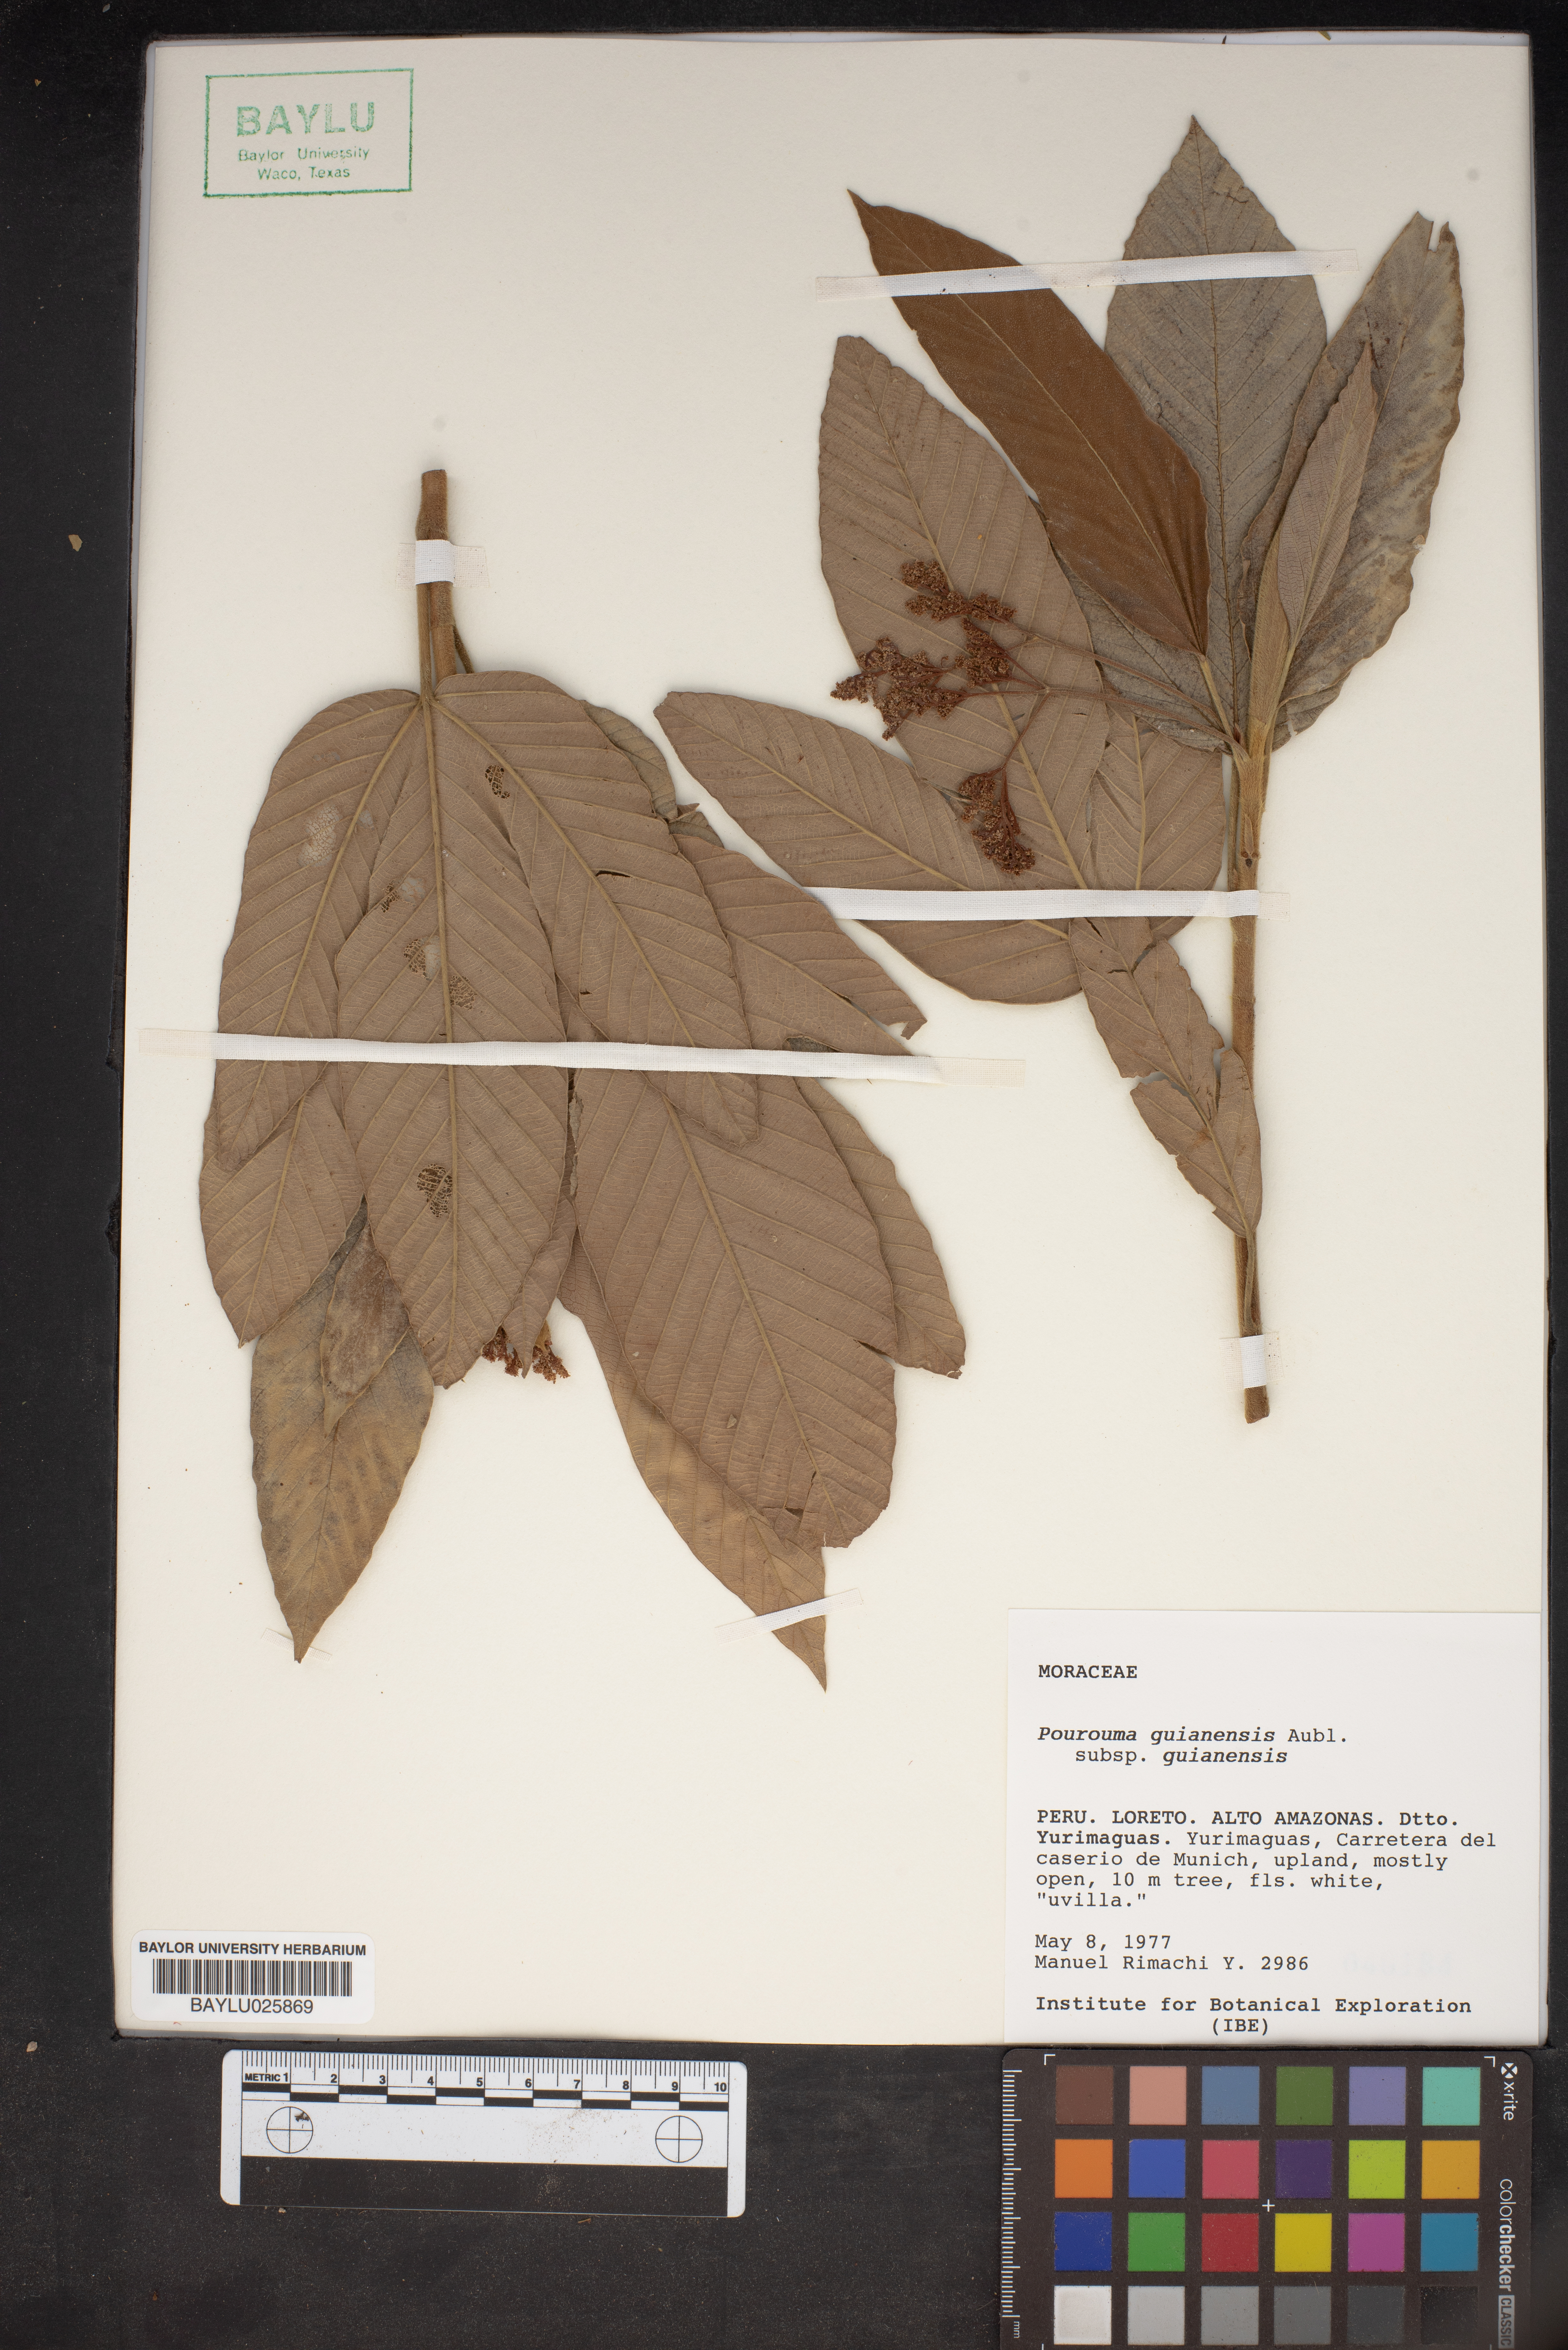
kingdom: Plantae
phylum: Tracheophyta
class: Magnoliopsida
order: Rosales
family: Urticaceae
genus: Pourouma
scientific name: Pourouma guianensis
